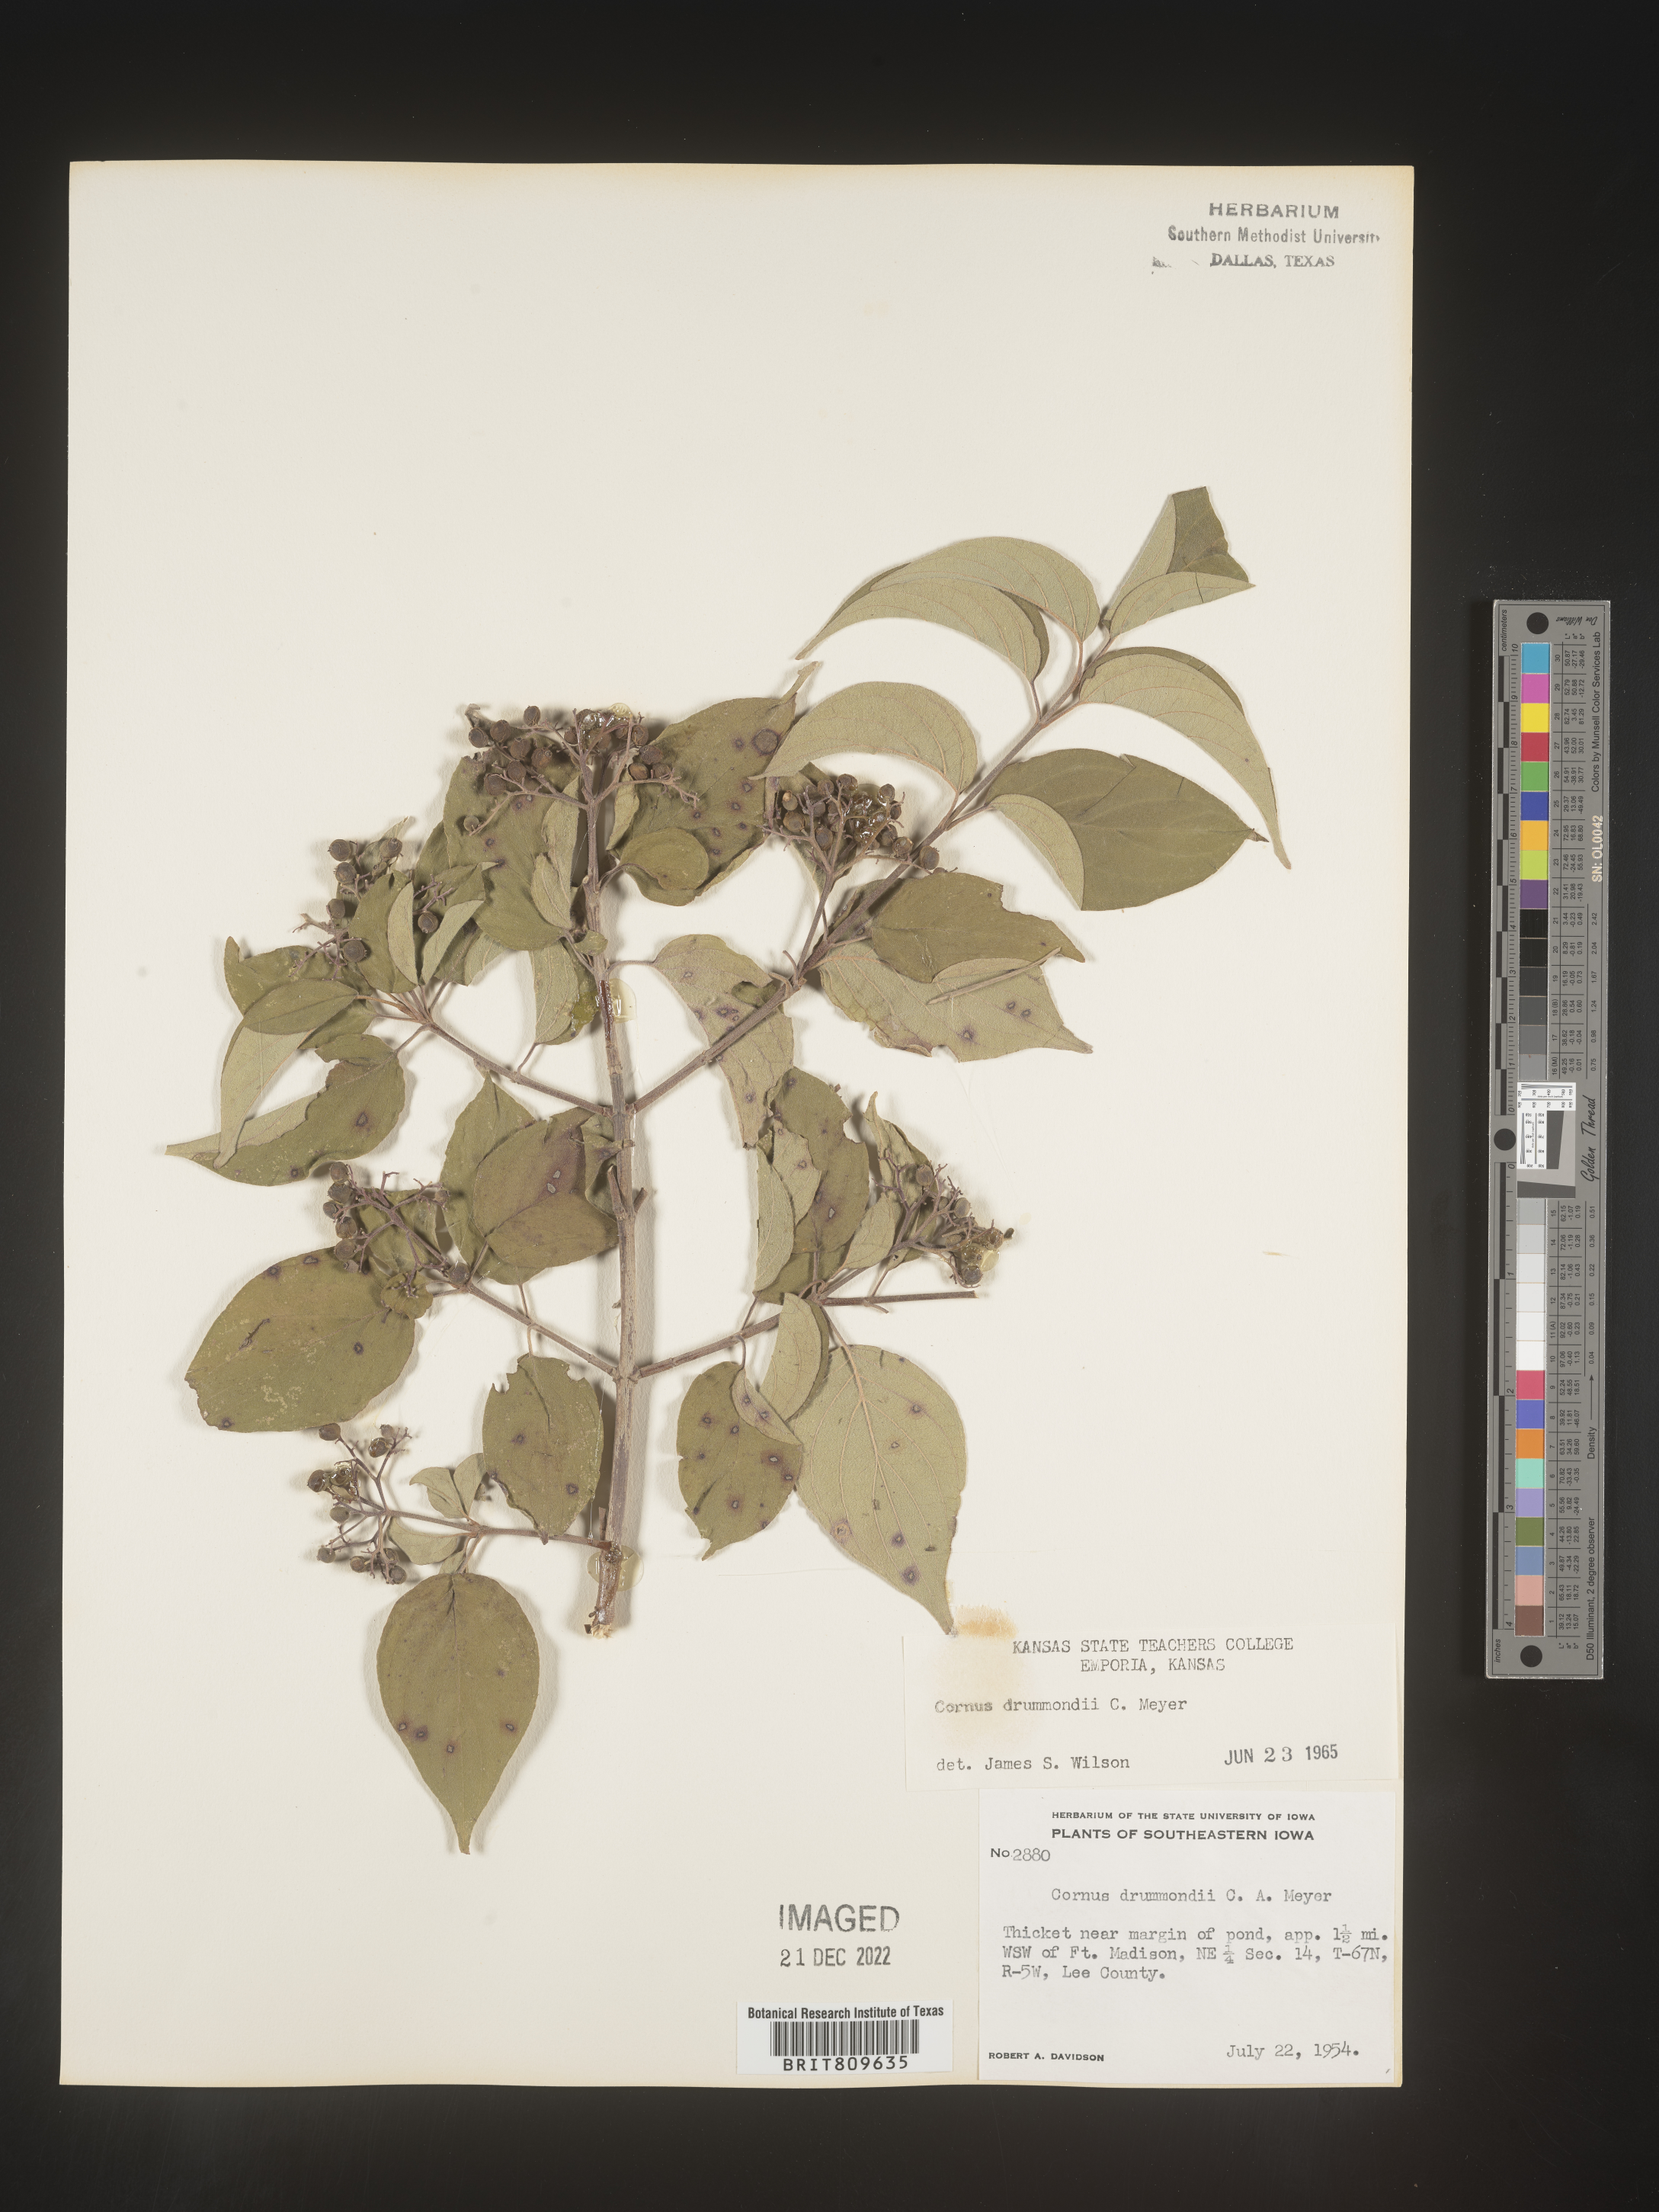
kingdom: Plantae
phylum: Tracheophyta
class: Magnoliopsida
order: Cornales
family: Cornaceae
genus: Cornus
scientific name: Cornus drummondii
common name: Rough-leaf dogwood
